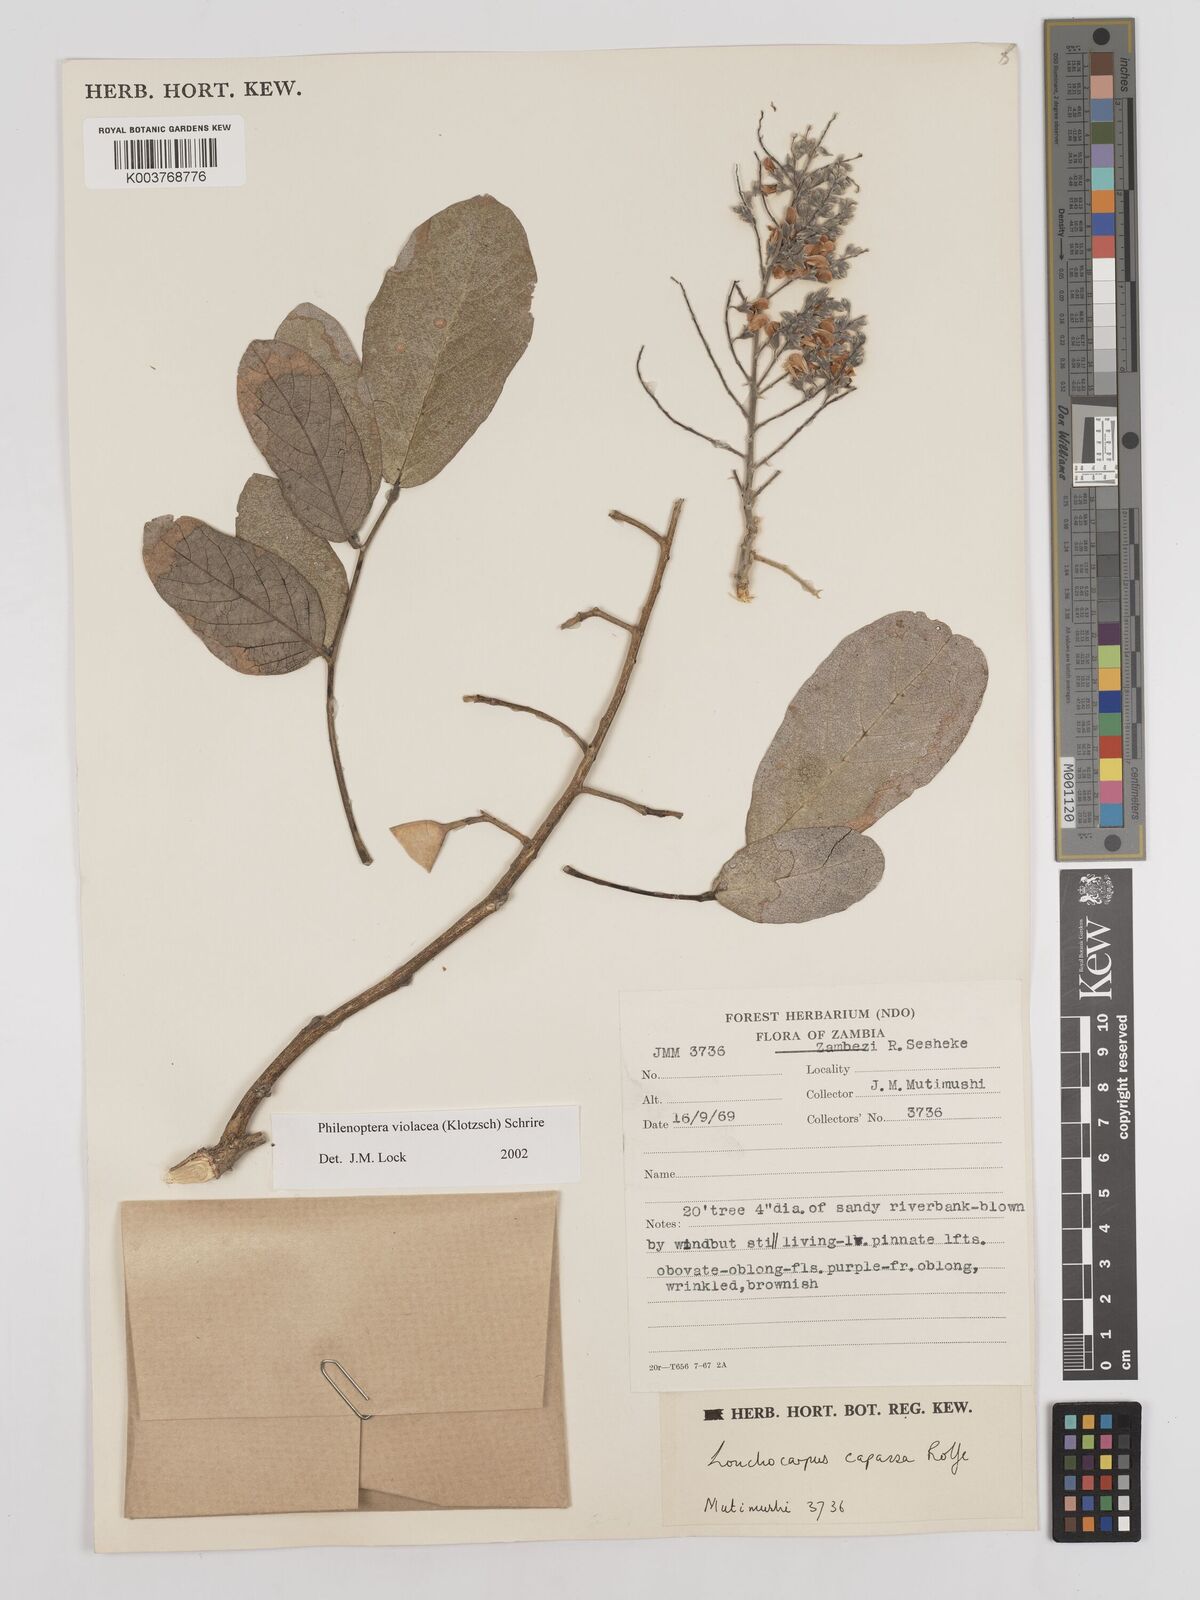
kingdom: Plantae
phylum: Tracheophyta
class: Magnoliopsida
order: Fabales
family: Fabaceae
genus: Philenoptera
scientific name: Philenoptera violacea
